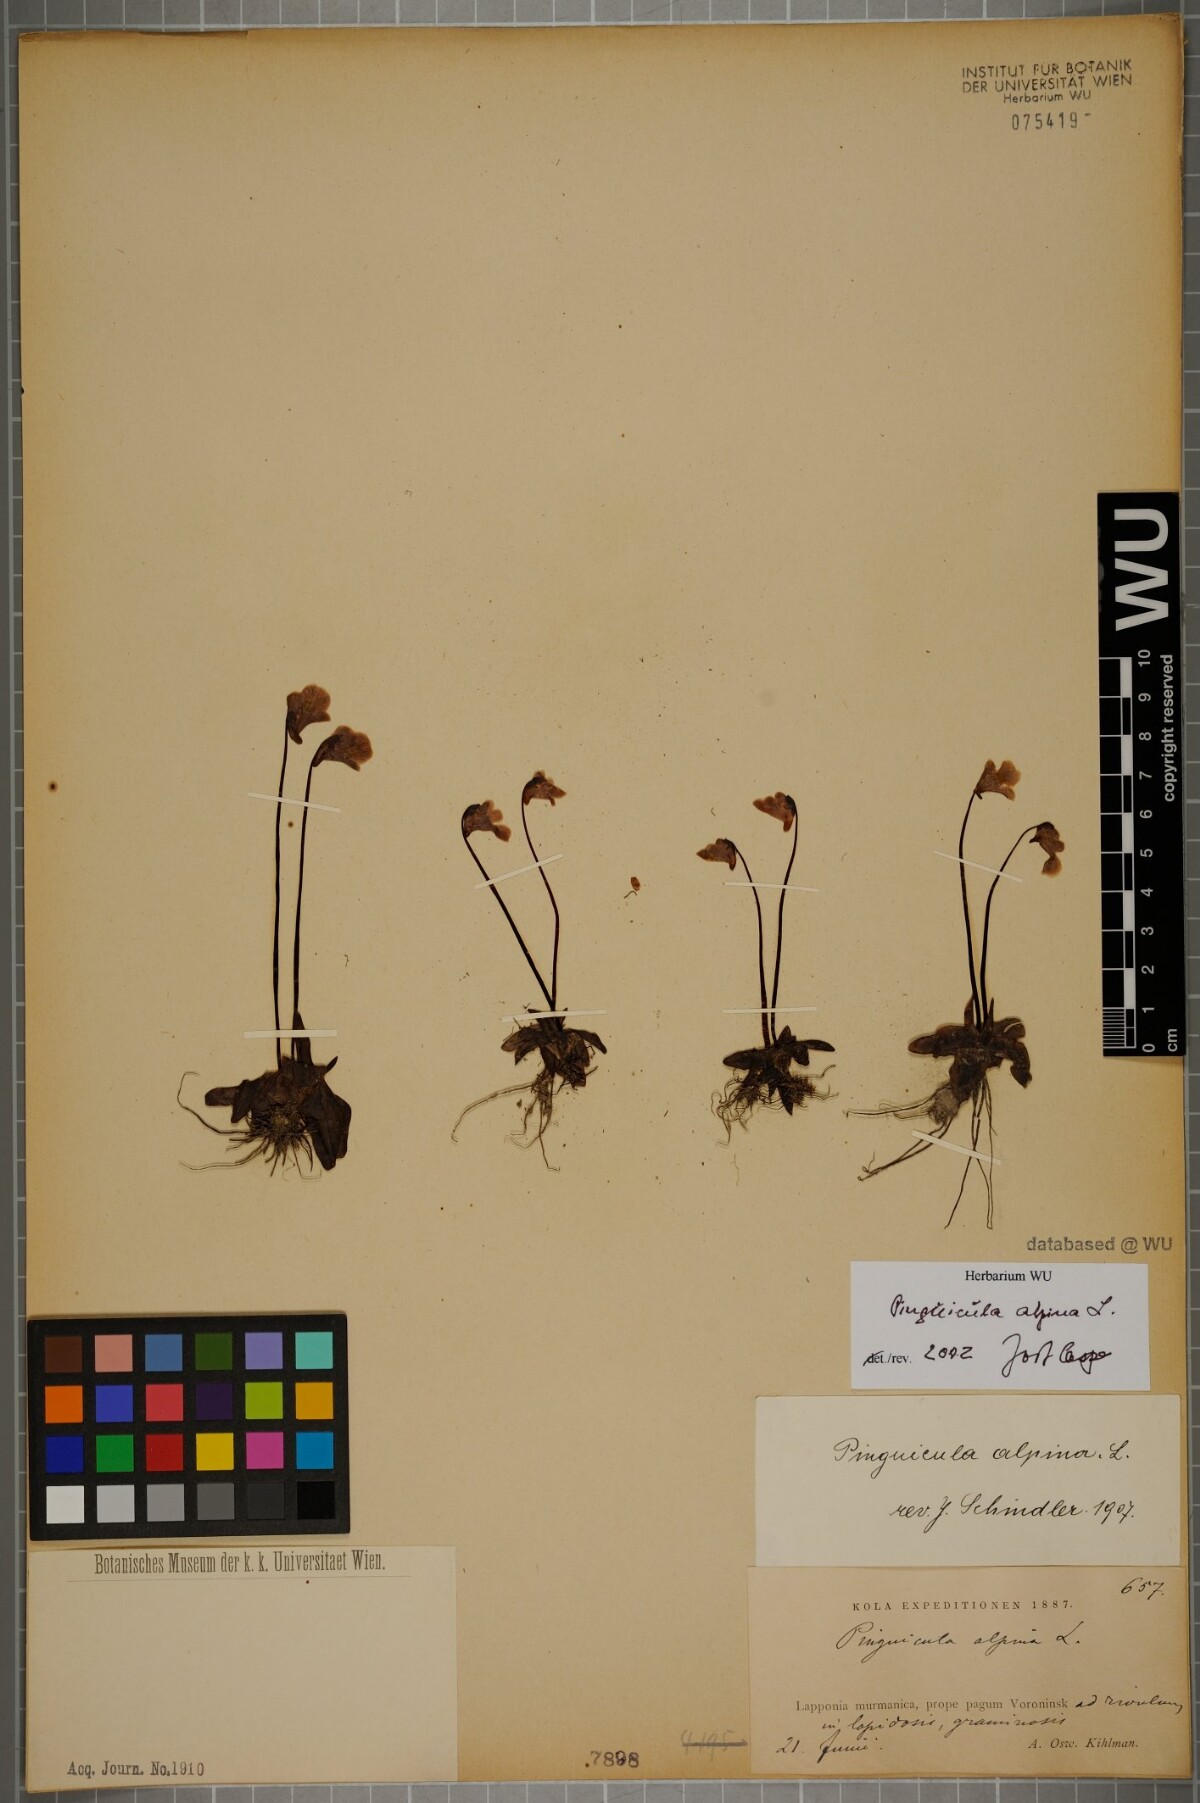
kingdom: Plantae
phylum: Tracheophyta
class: Magnoliopsida
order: Lamiales
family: Lentibulariaceae
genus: Pinguicula
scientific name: Pinguicula alpina
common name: Alpine butterwort
